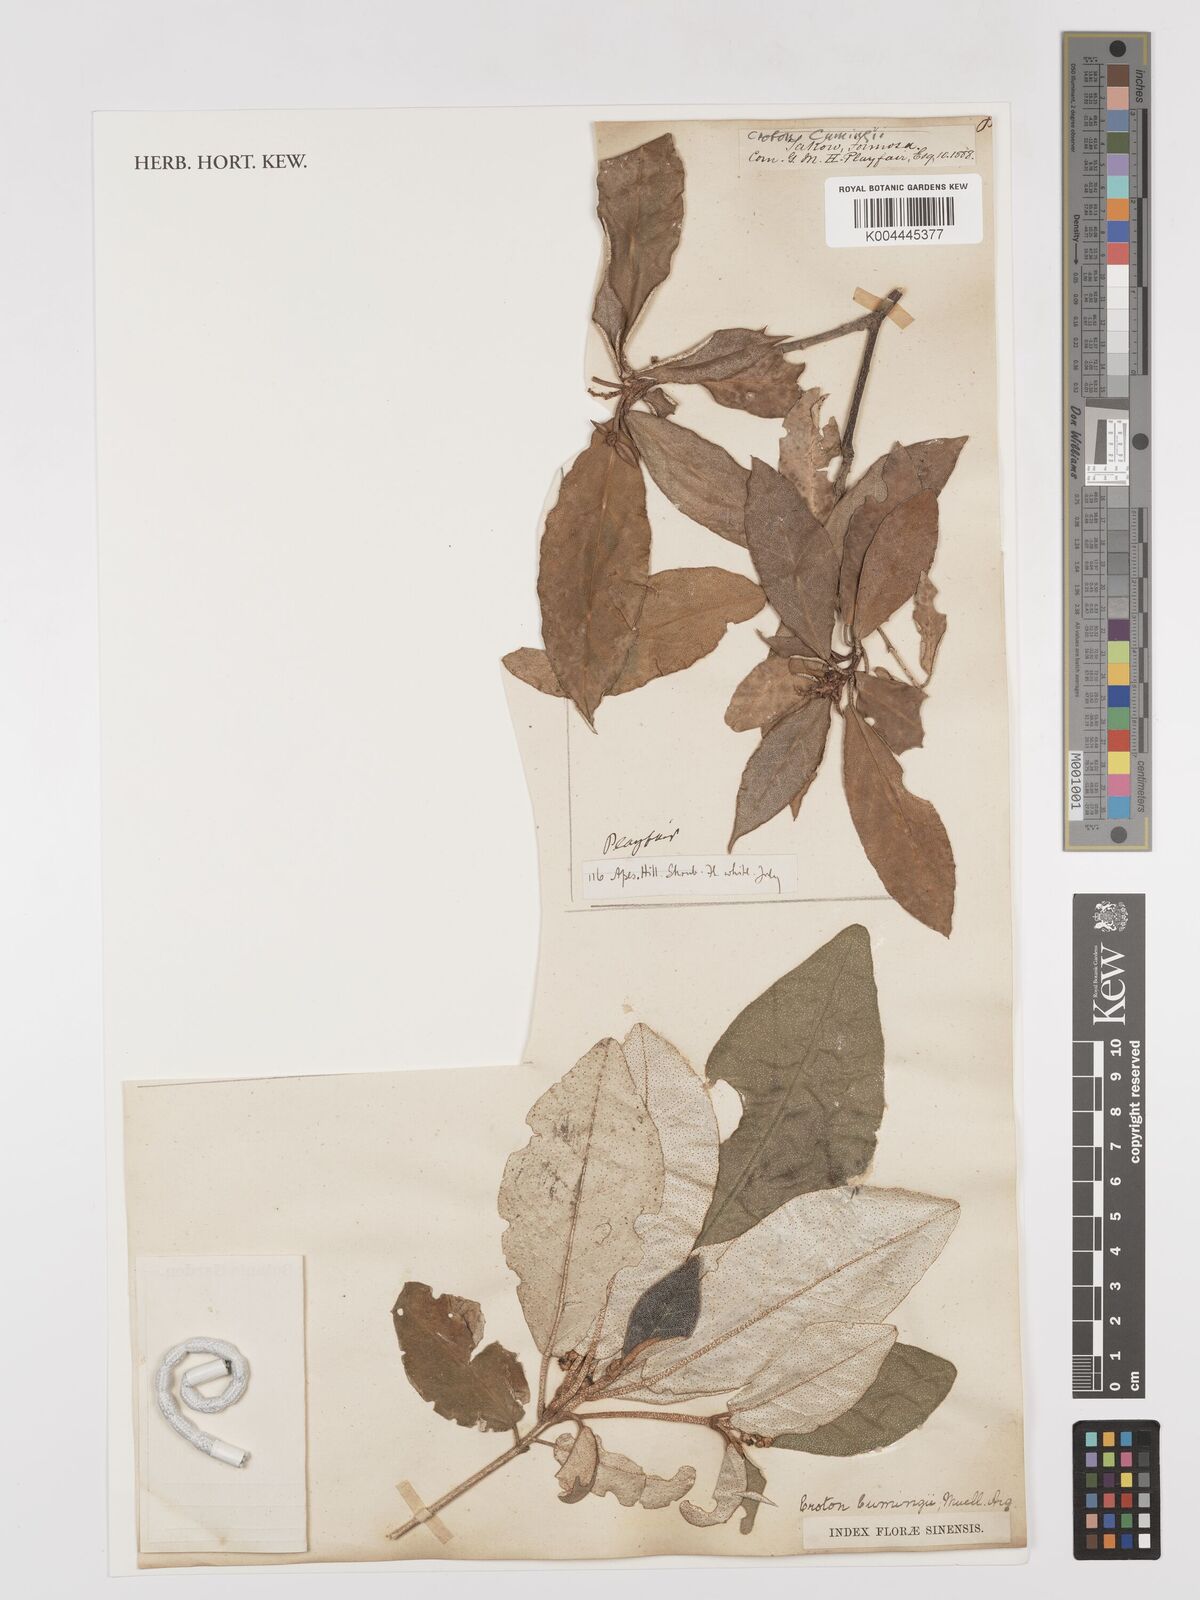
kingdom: Plantae
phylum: Tracheophyta
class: Magnoliopsida
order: Malpighiales
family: Euphorbiaceae
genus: Croton
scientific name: Croton cascarilloides
